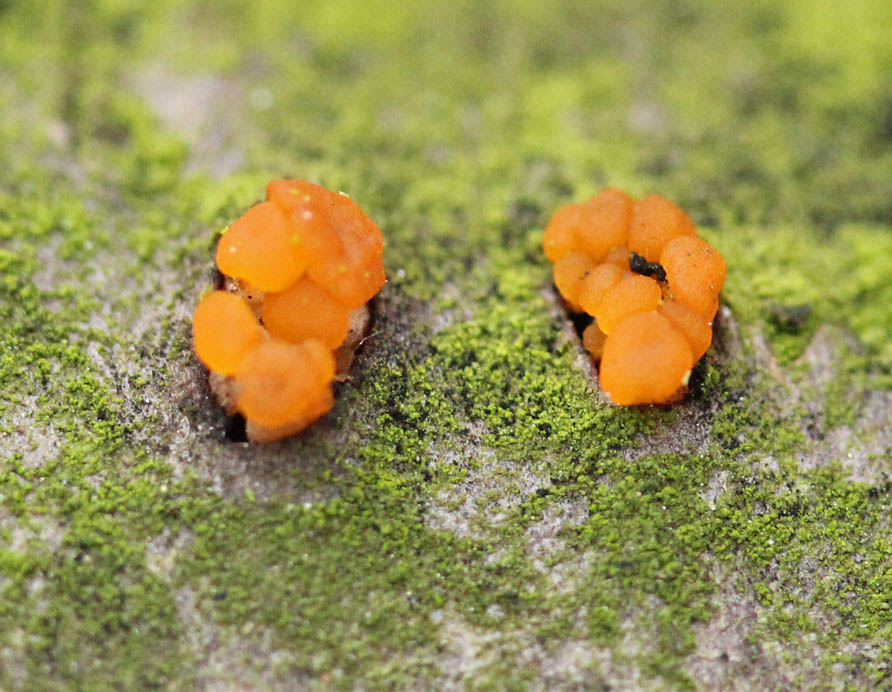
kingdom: Fungi
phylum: Basidiomycota
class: Dacrymycetes
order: Dacrymycetales
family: Dacrymycetaceae
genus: Dacrymyces
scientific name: Dacrymyces capitatus
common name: stilket tåresvamp
